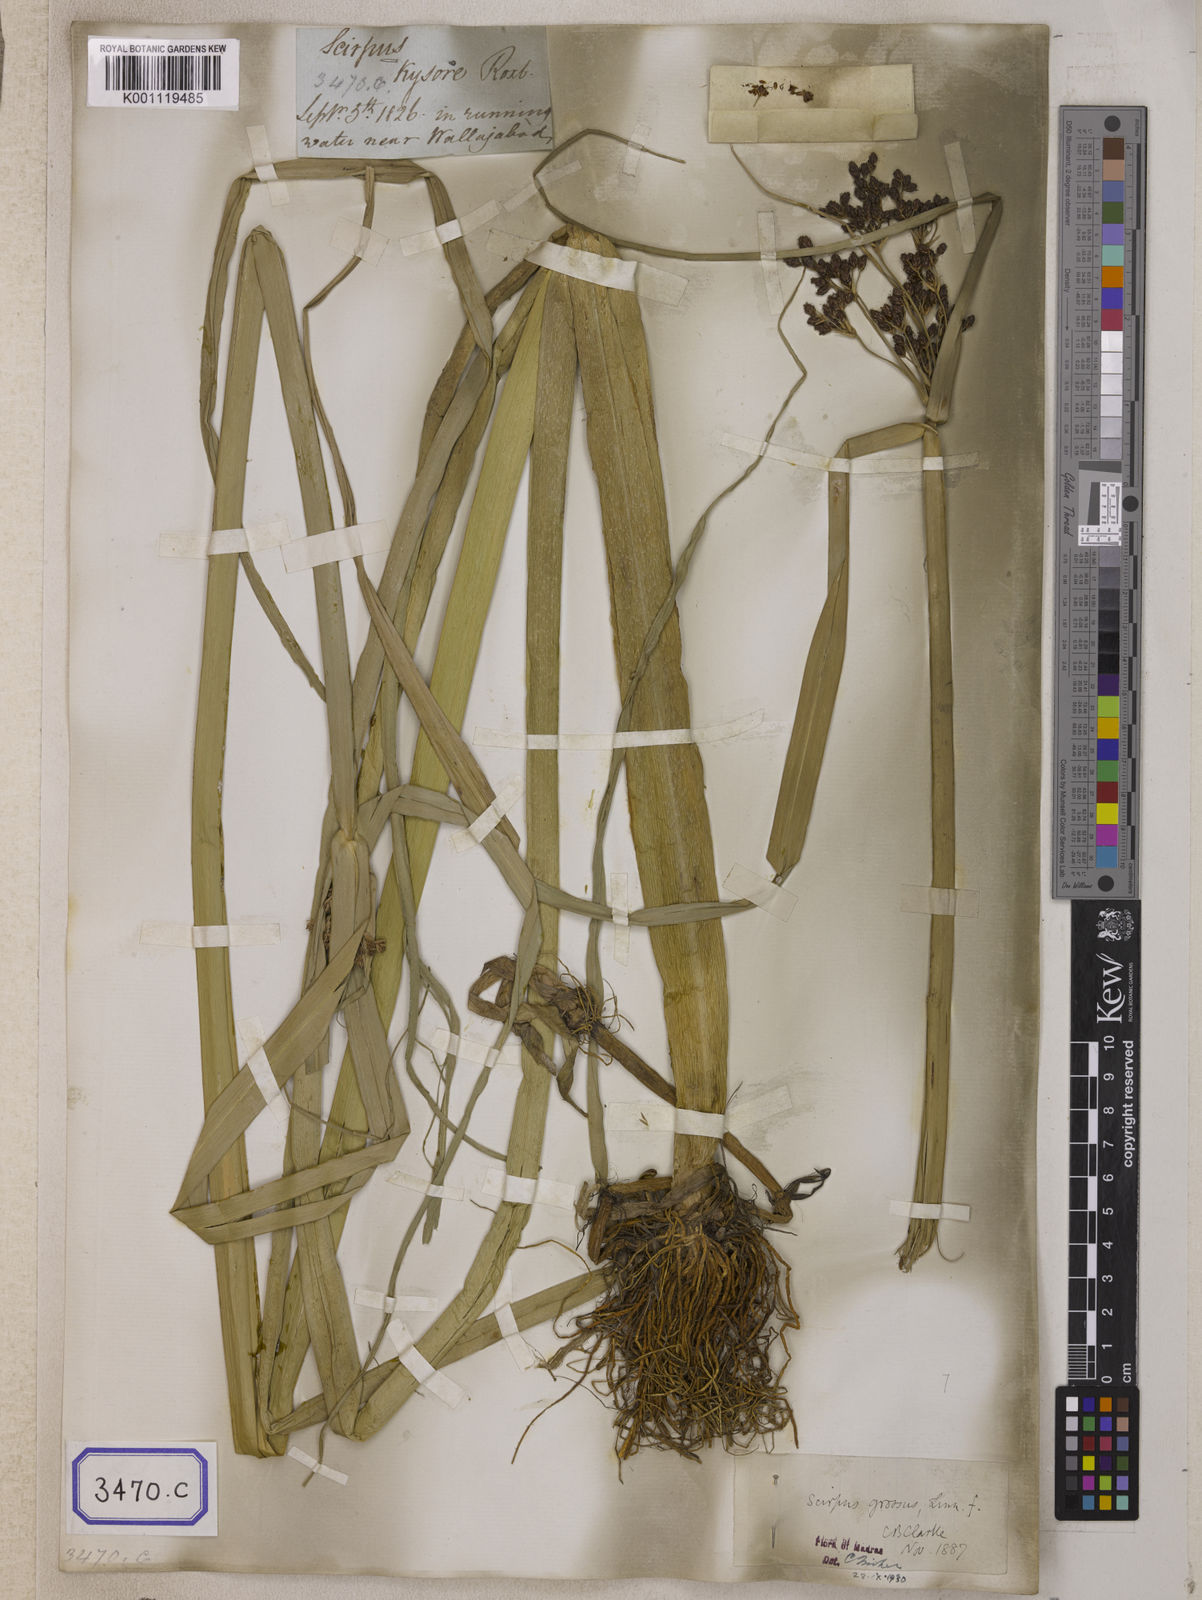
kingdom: Plantae
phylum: Tracheophyta
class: Liliopsida
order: Poales
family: Cyperaceae
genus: Isolepis
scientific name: Isolepis
